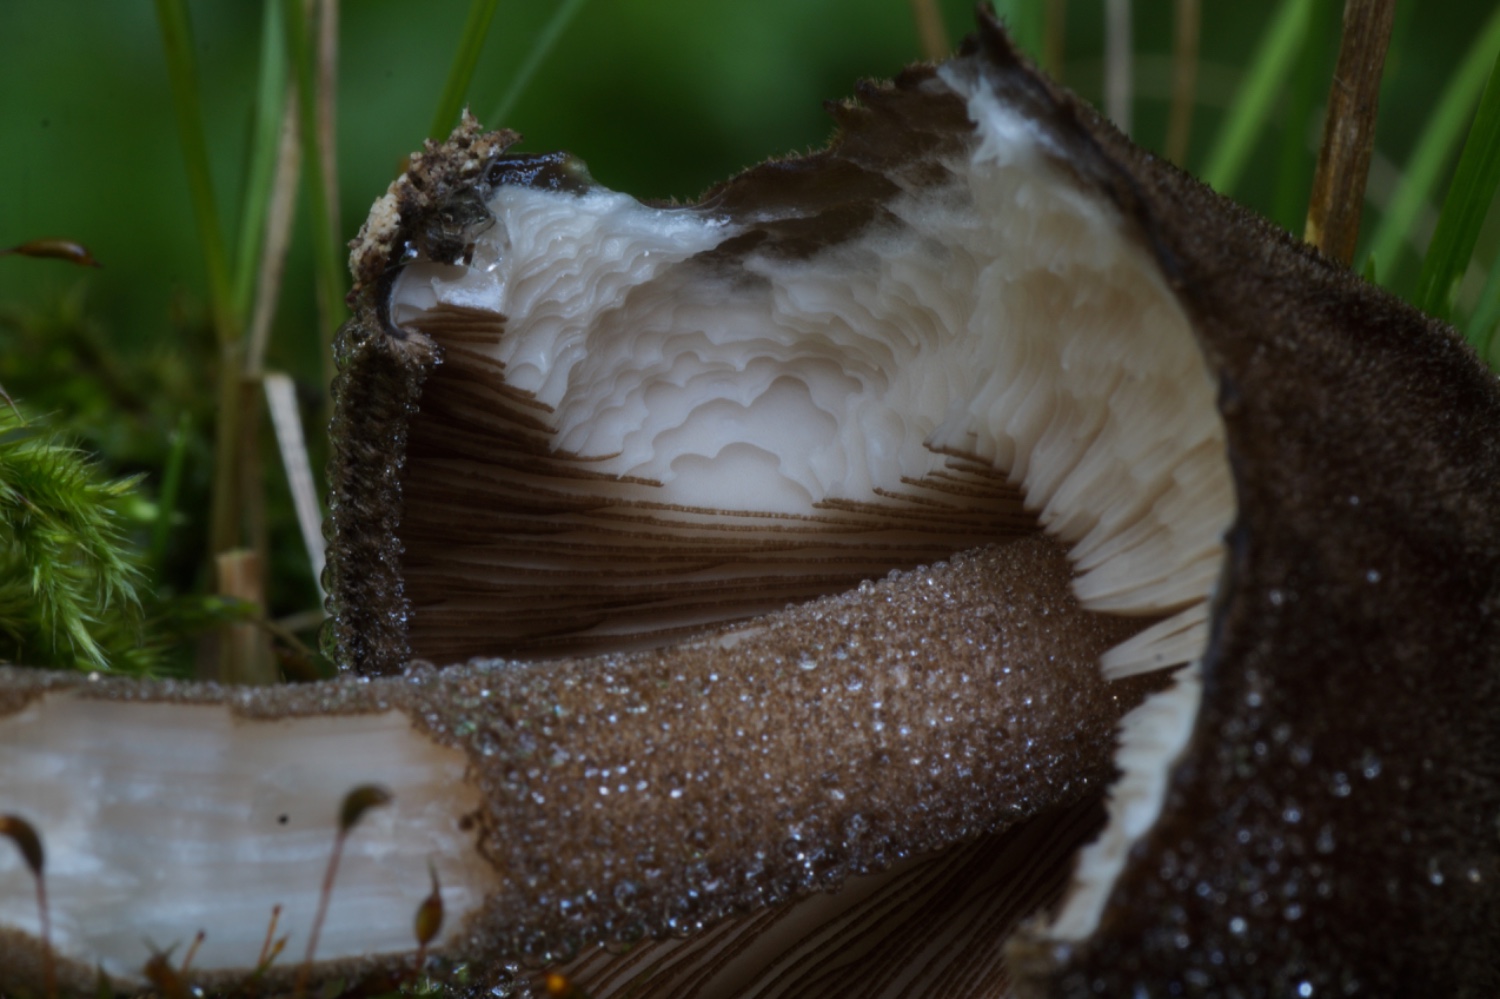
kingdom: Fungi
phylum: Basidiomycota
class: Agaricomycetes
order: Agaricales
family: Pluteaceae
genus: Pluteus
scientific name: Pluteus umbrosus
